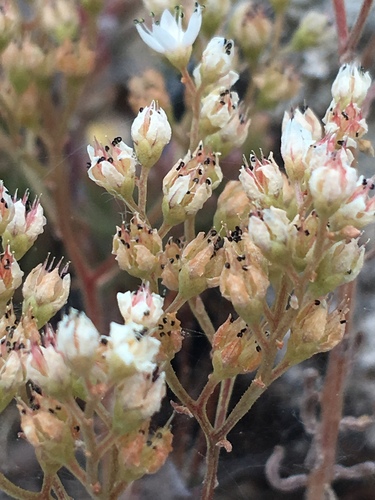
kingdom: Plantae
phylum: Tracheophyta
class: Magnoliopsida
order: Saxifragales
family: Crassulaceae
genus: Sedum
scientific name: Sedum album
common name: White stonecrop
